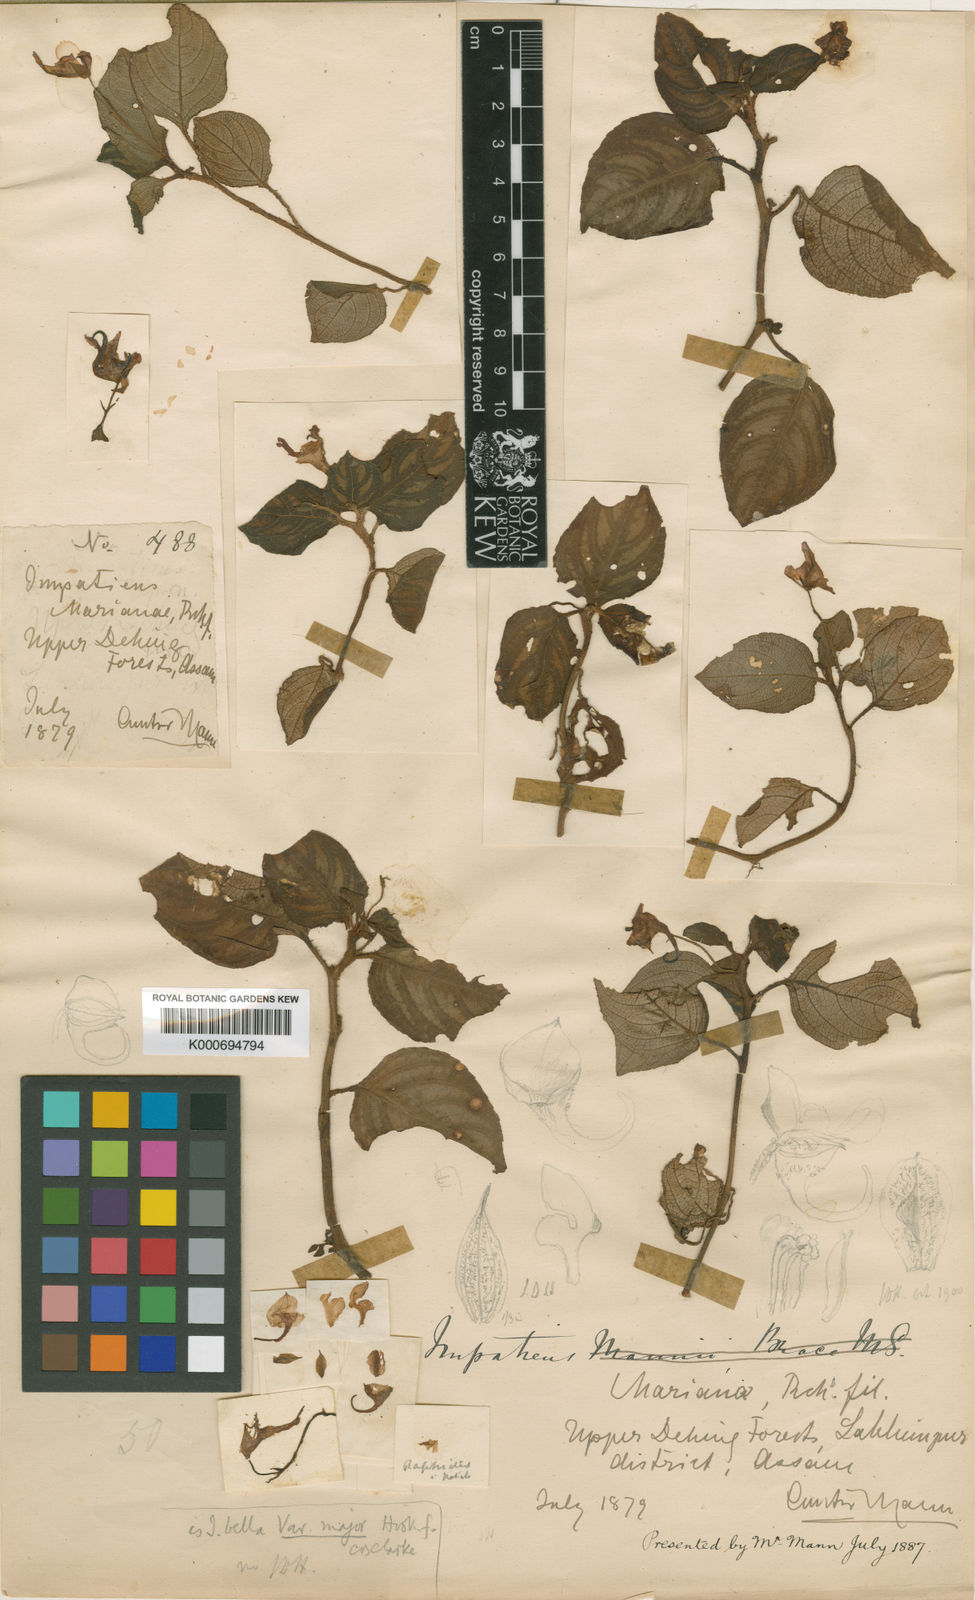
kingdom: Plantae
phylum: Tracheophyta
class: Magnoliopsida
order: Ericales
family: Balsaminaceae
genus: Impatiens
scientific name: Impatiens
